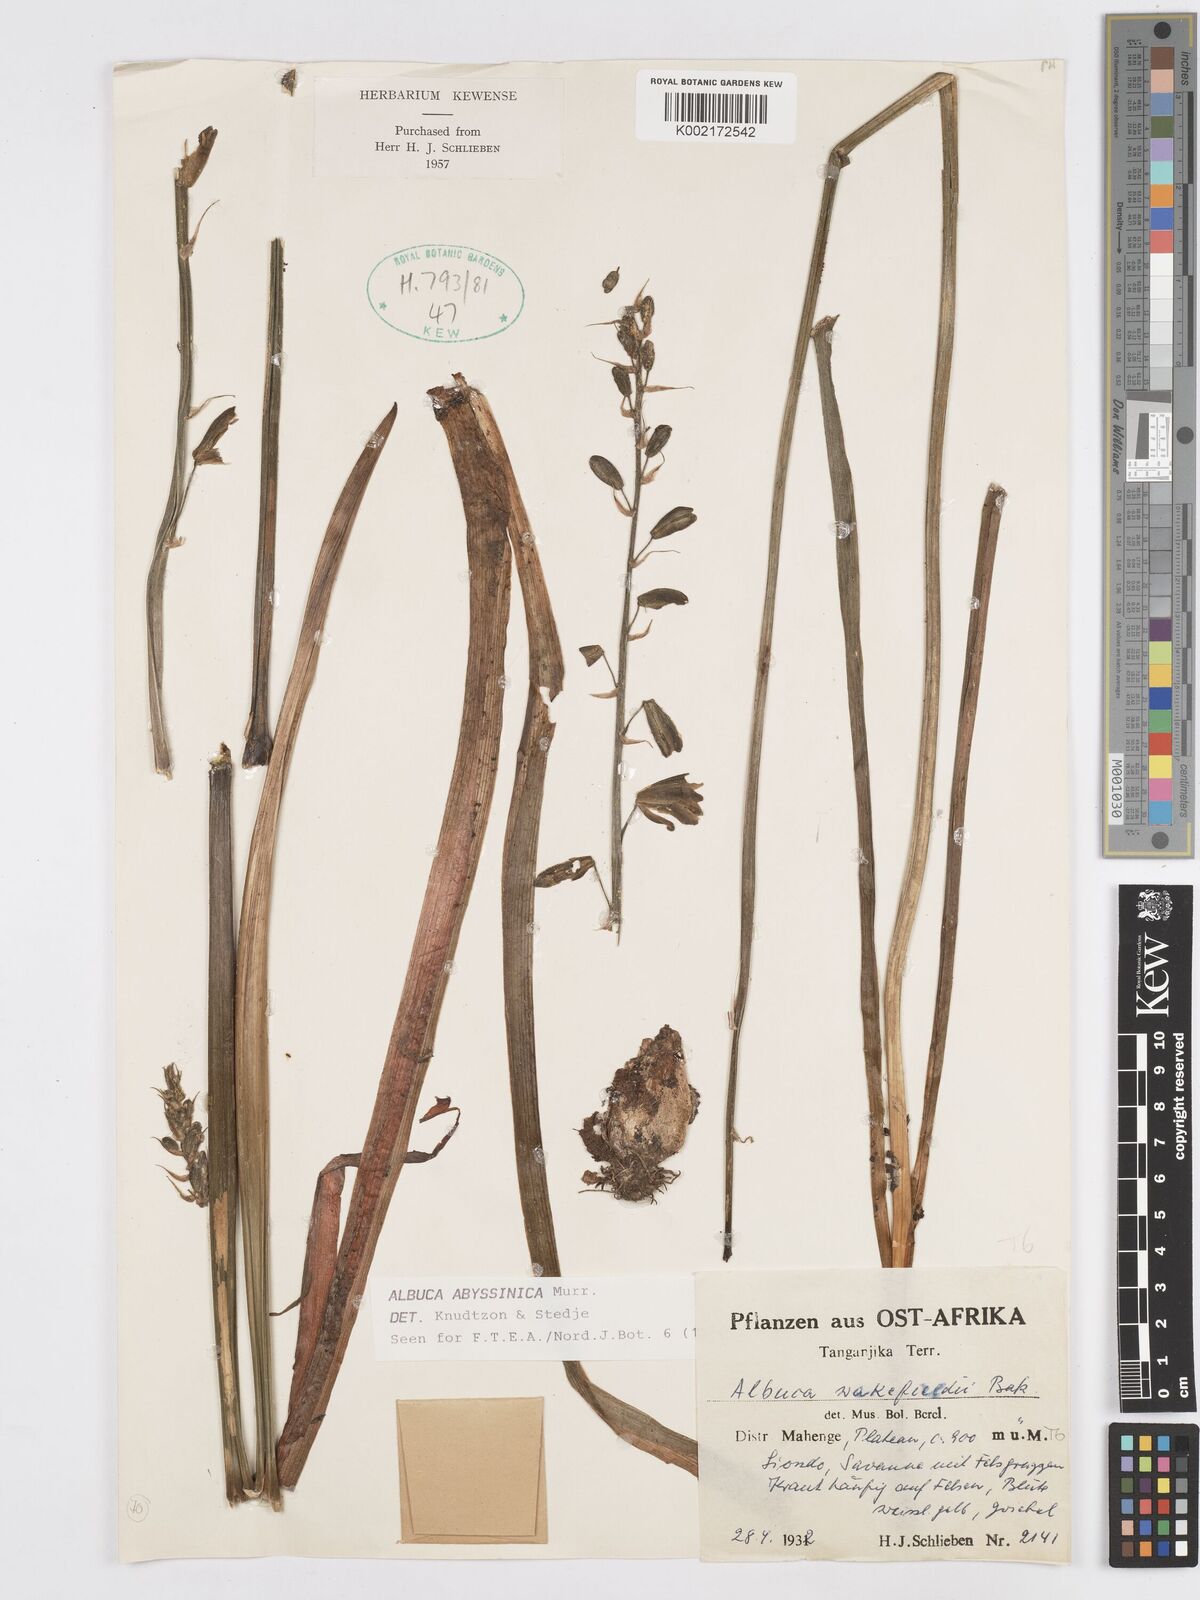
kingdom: Plantae
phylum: Tracheophyta
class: Liliopsida
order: Asparagales
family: Asparagaceae
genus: Albuca
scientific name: Albuca abyssinica
